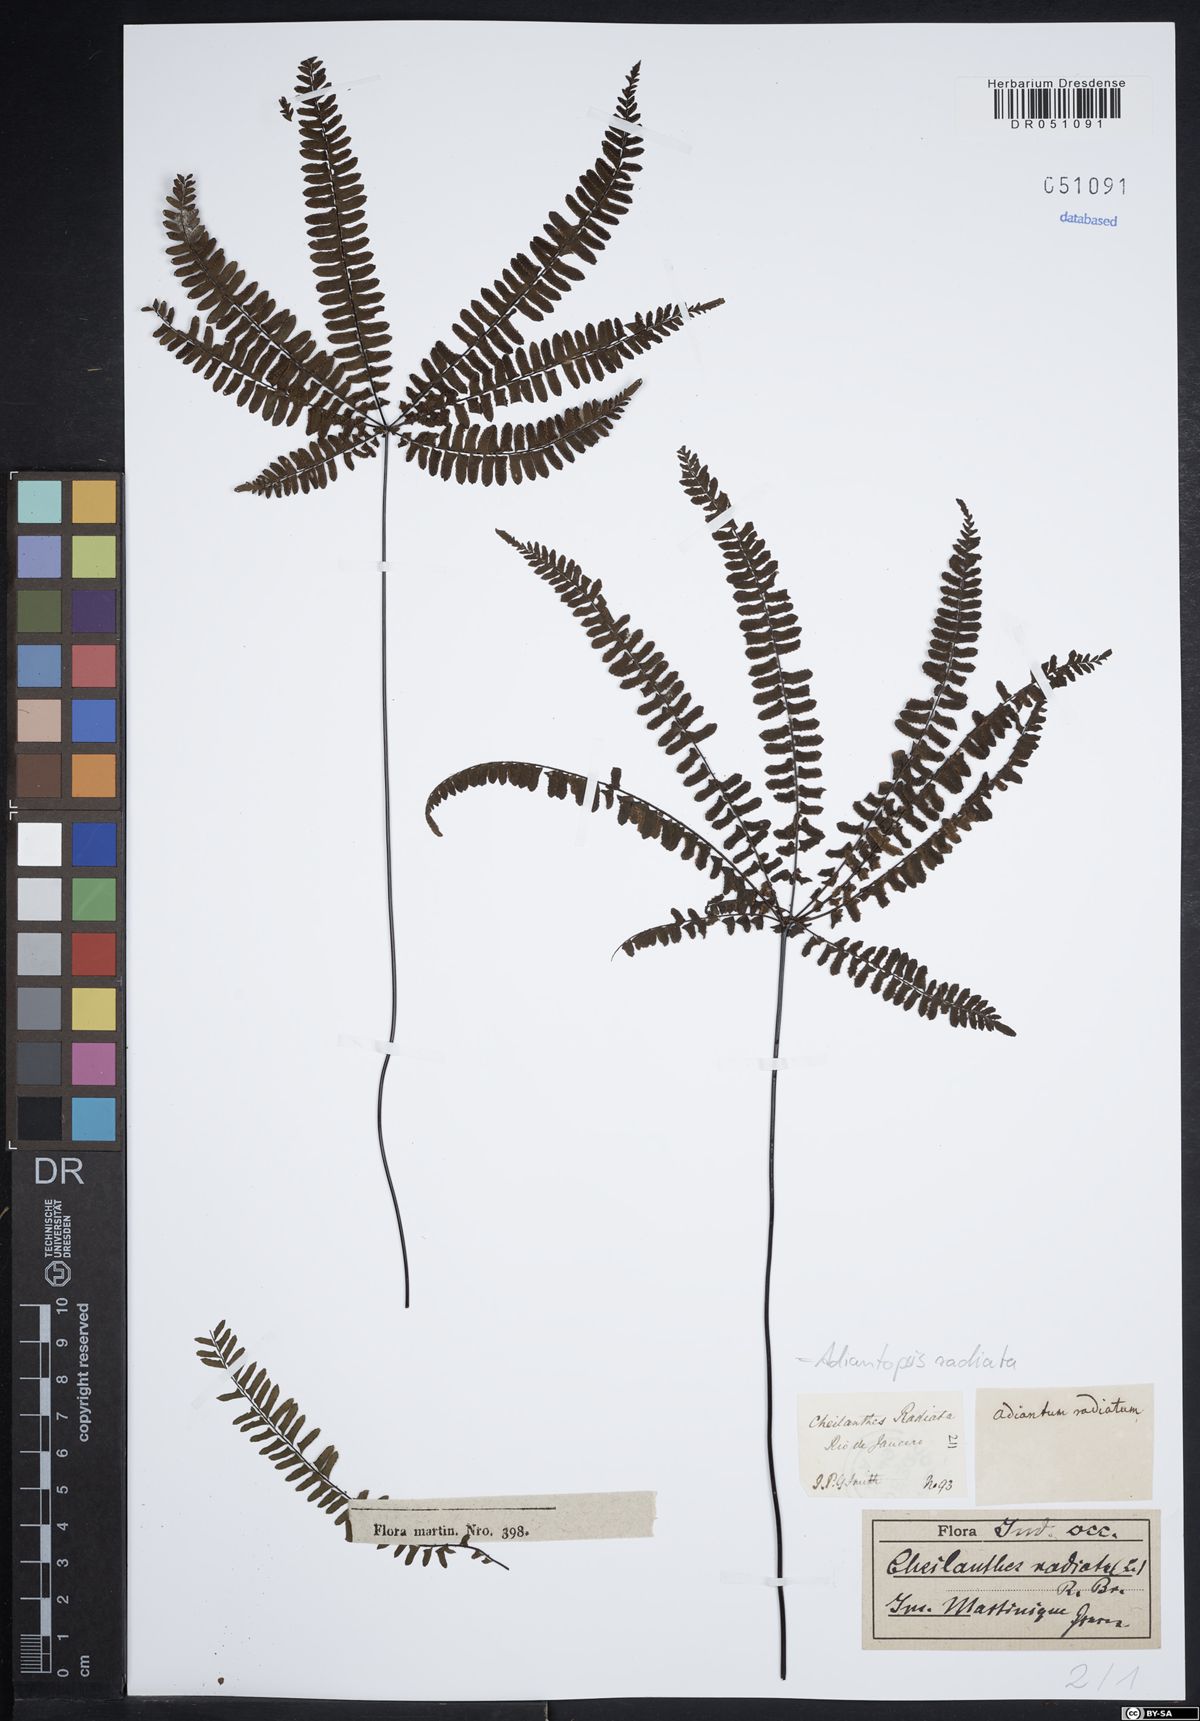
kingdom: Plantae
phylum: Tracheophyta
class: Polypodiopsida
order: Polypodiales
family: Pteridaceae
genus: Adiantopsis
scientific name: Adiantopsis radiata
